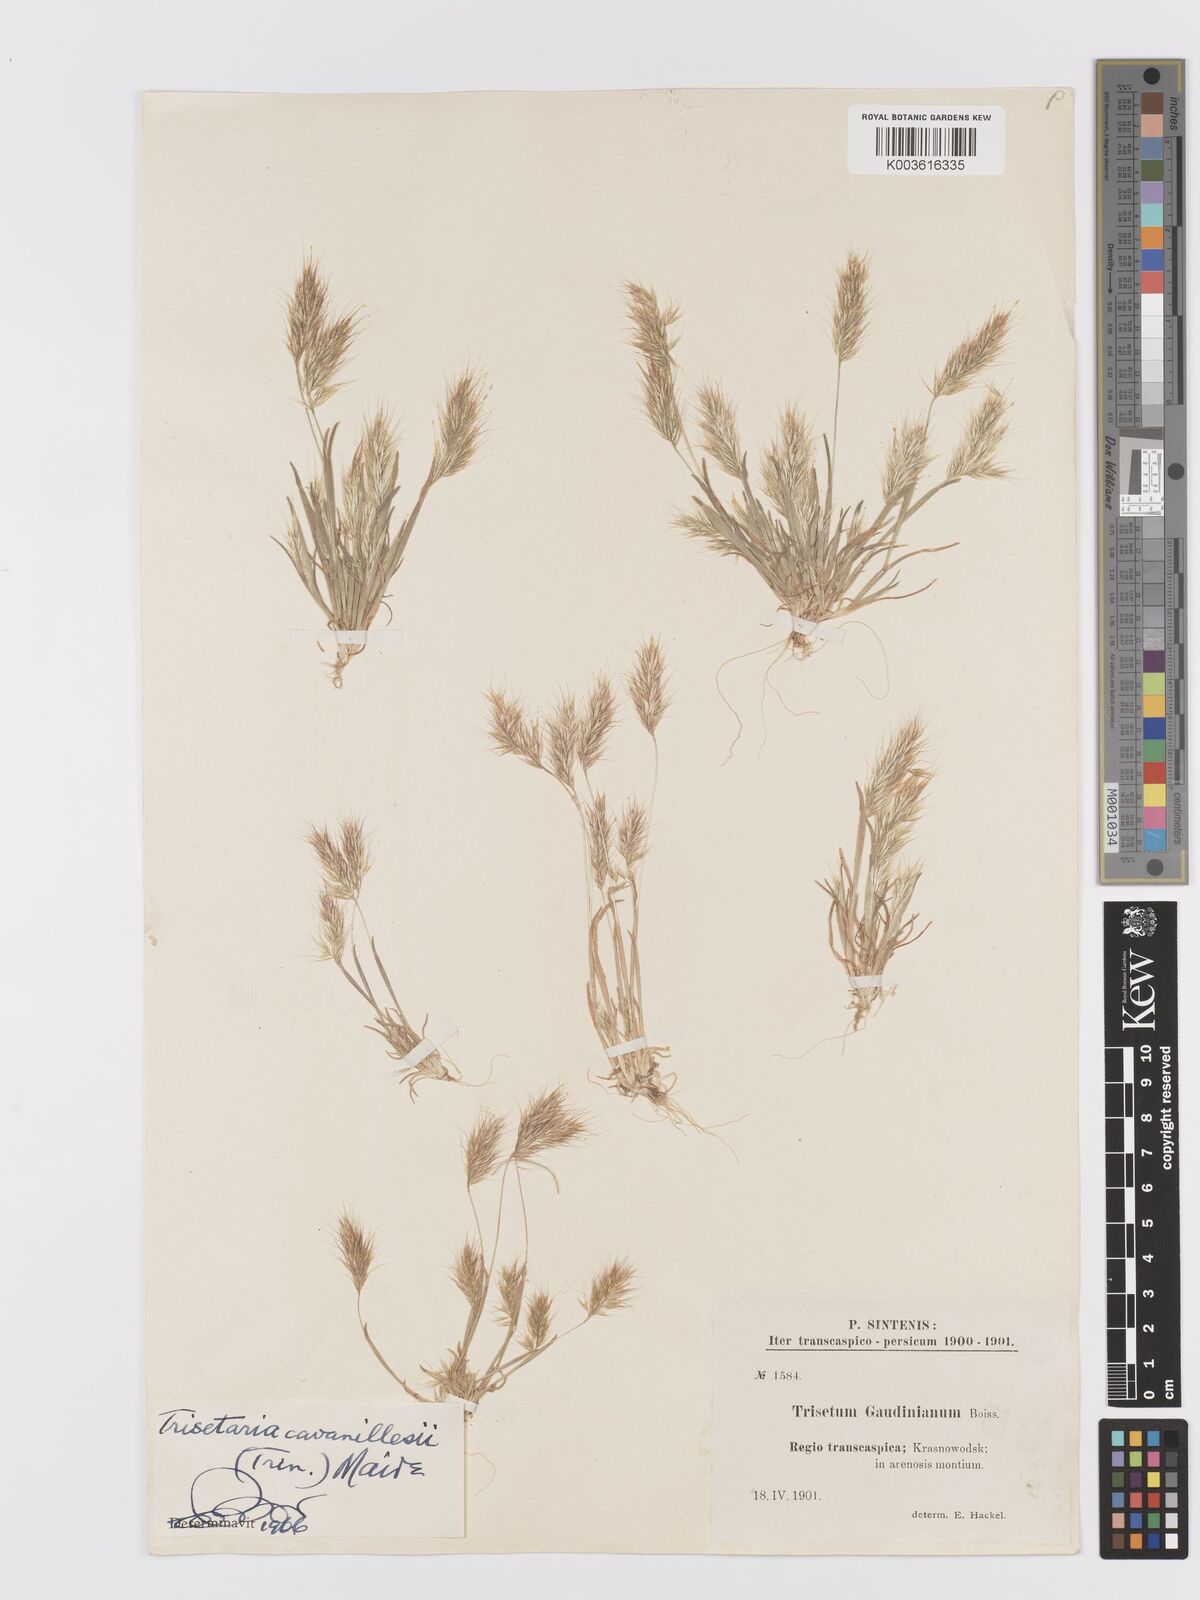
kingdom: Plantae
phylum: Tracheophyta
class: Liliopsida
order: Poales
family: Poaceae
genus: Trisetaria
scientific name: Trisetaria loeflingiana
